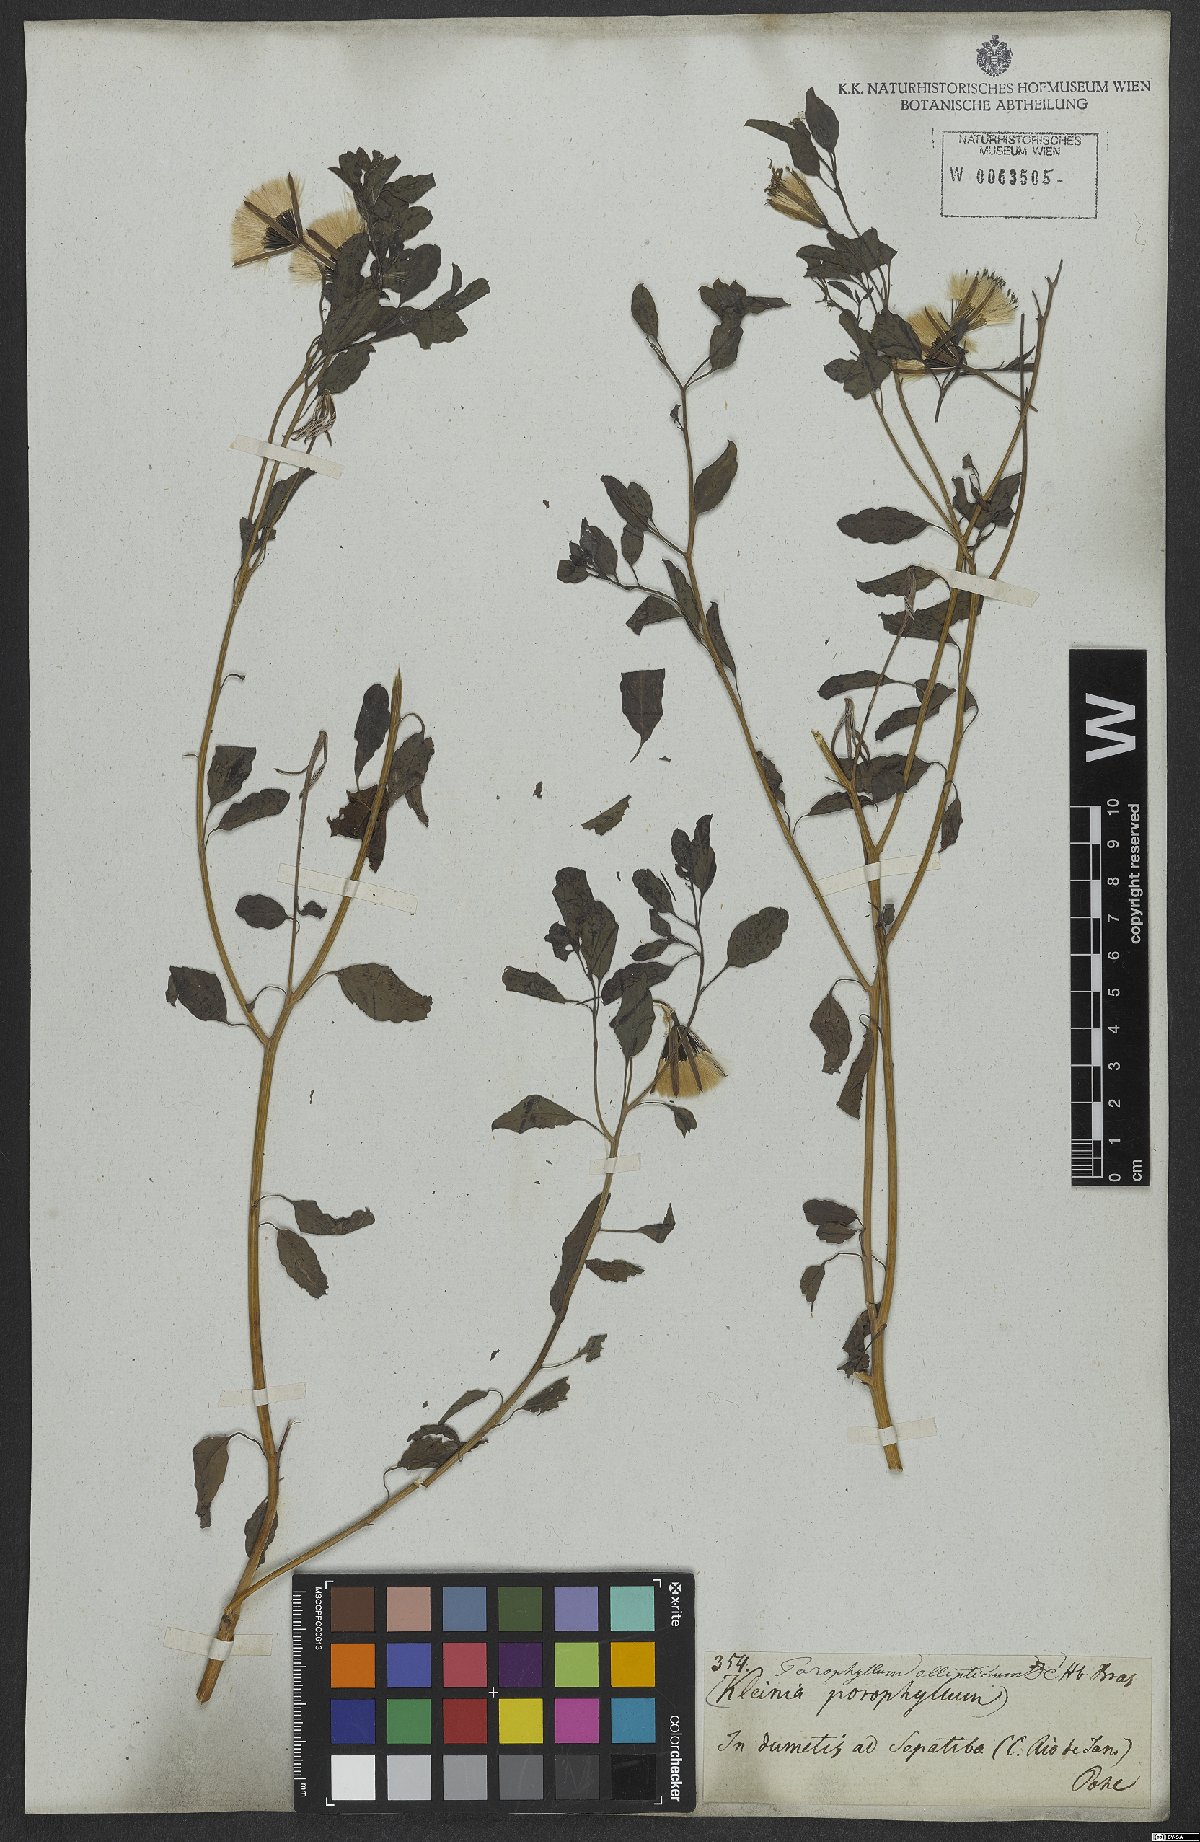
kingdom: Plantae
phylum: Tracheophyta
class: Magnoliopsida
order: Asterales
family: Asteraceae
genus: Porophyllum
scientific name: Porophyllum ruderale
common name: Yerba porosa
